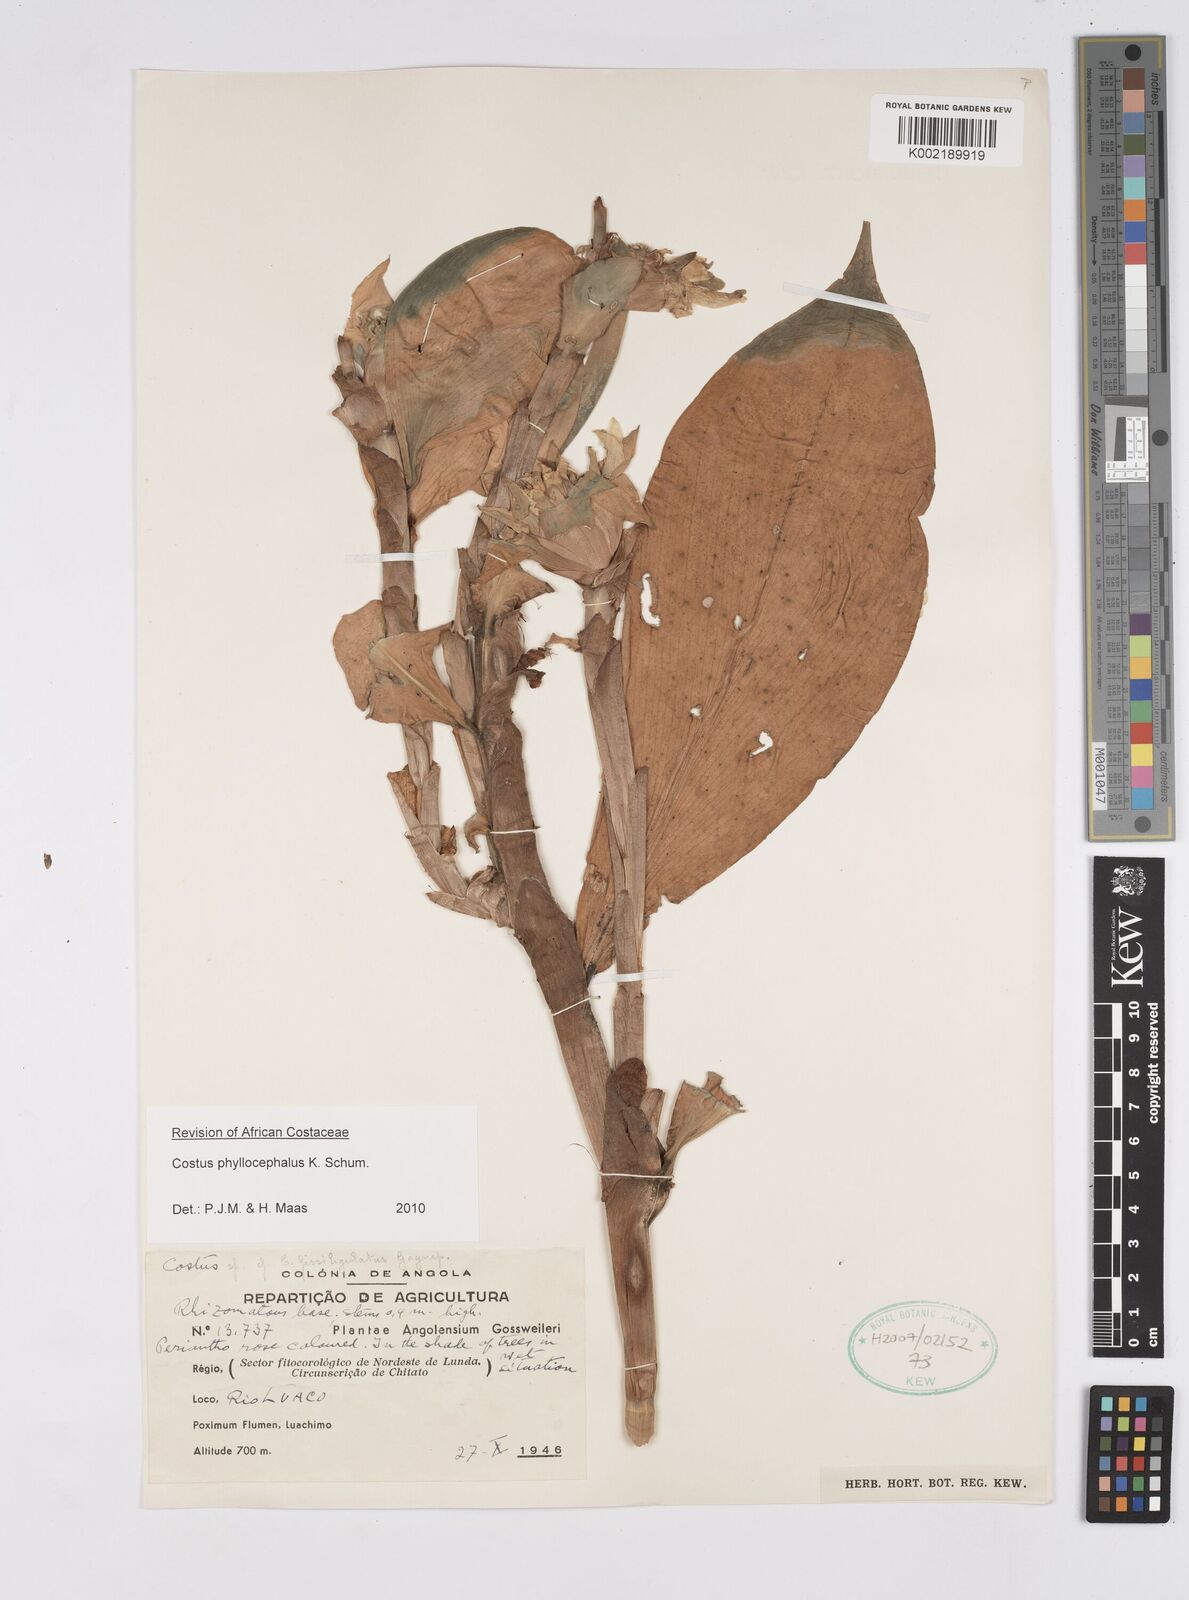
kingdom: Plantae
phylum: Tracheophyta
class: Liliopsida
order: Zingiberales
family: Costaceae
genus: Costus
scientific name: Costus phyllocephalus
